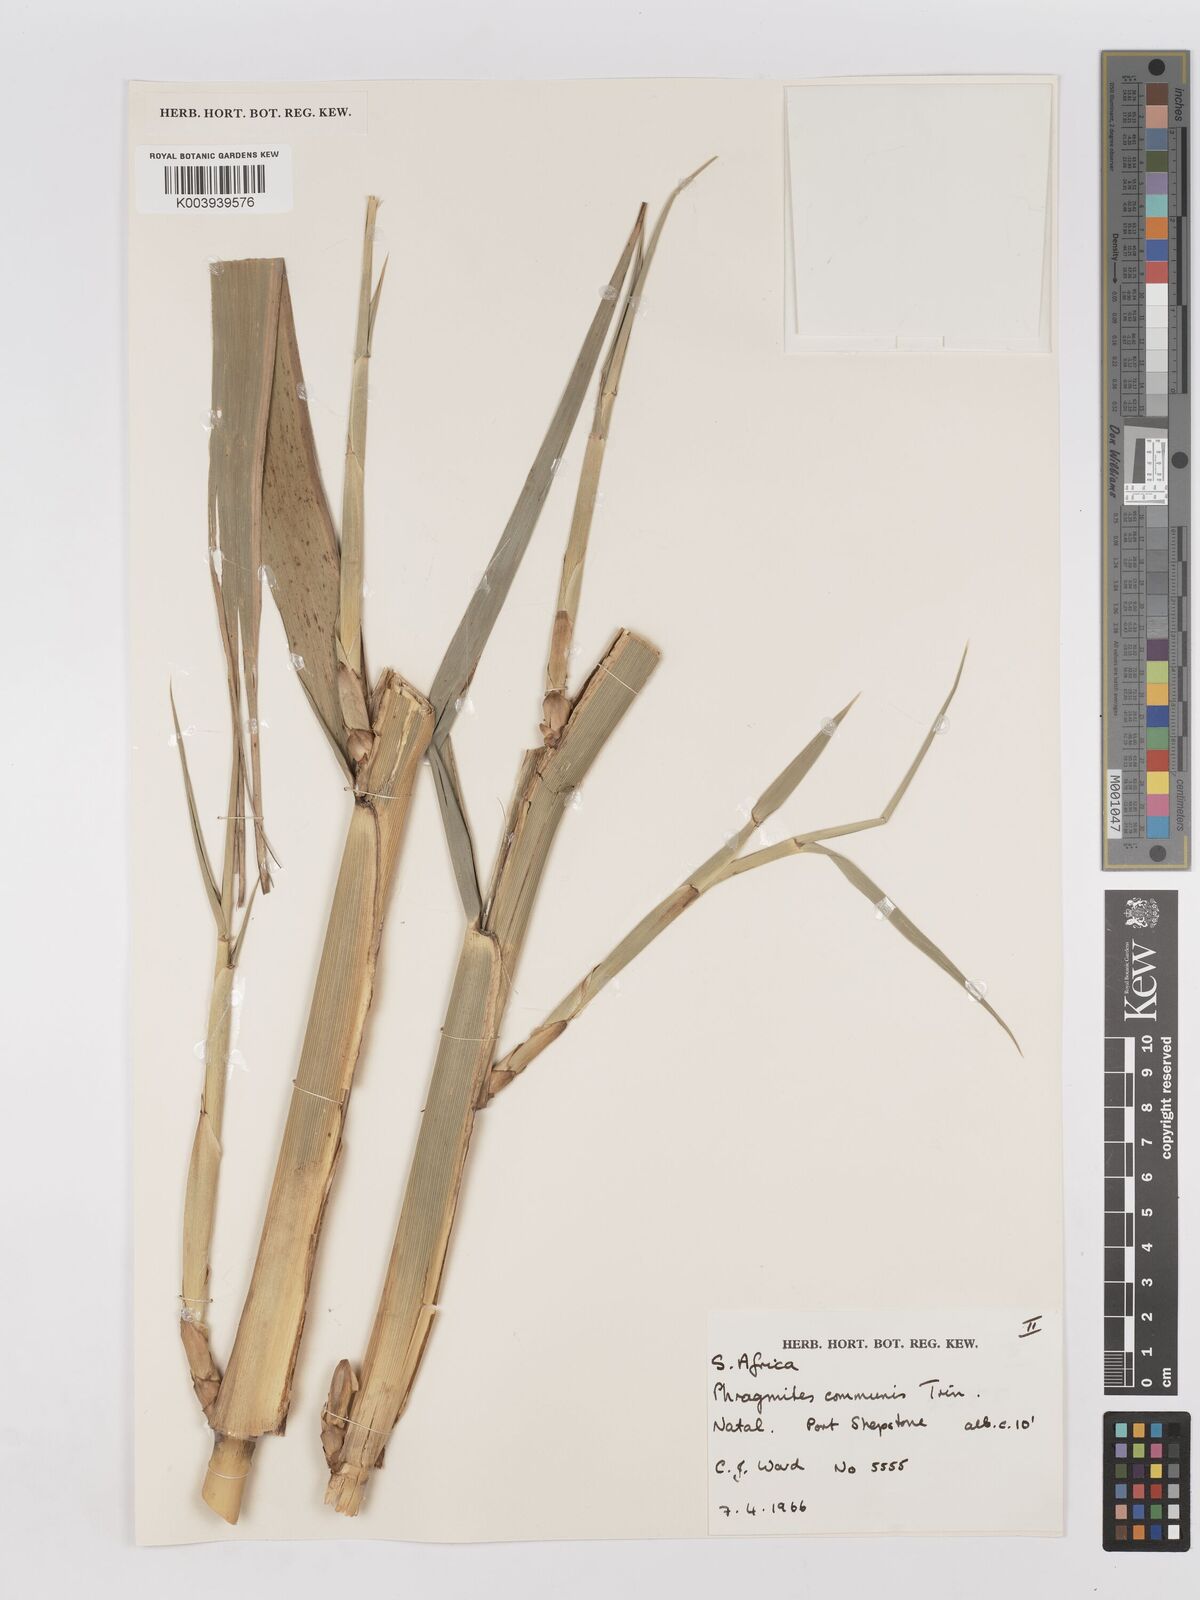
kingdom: Plantae
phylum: Tracheophyta
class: Liliopsida
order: Poales
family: Poaceae
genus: Phragmites
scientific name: Phragmites mauritianus
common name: Reed grass
